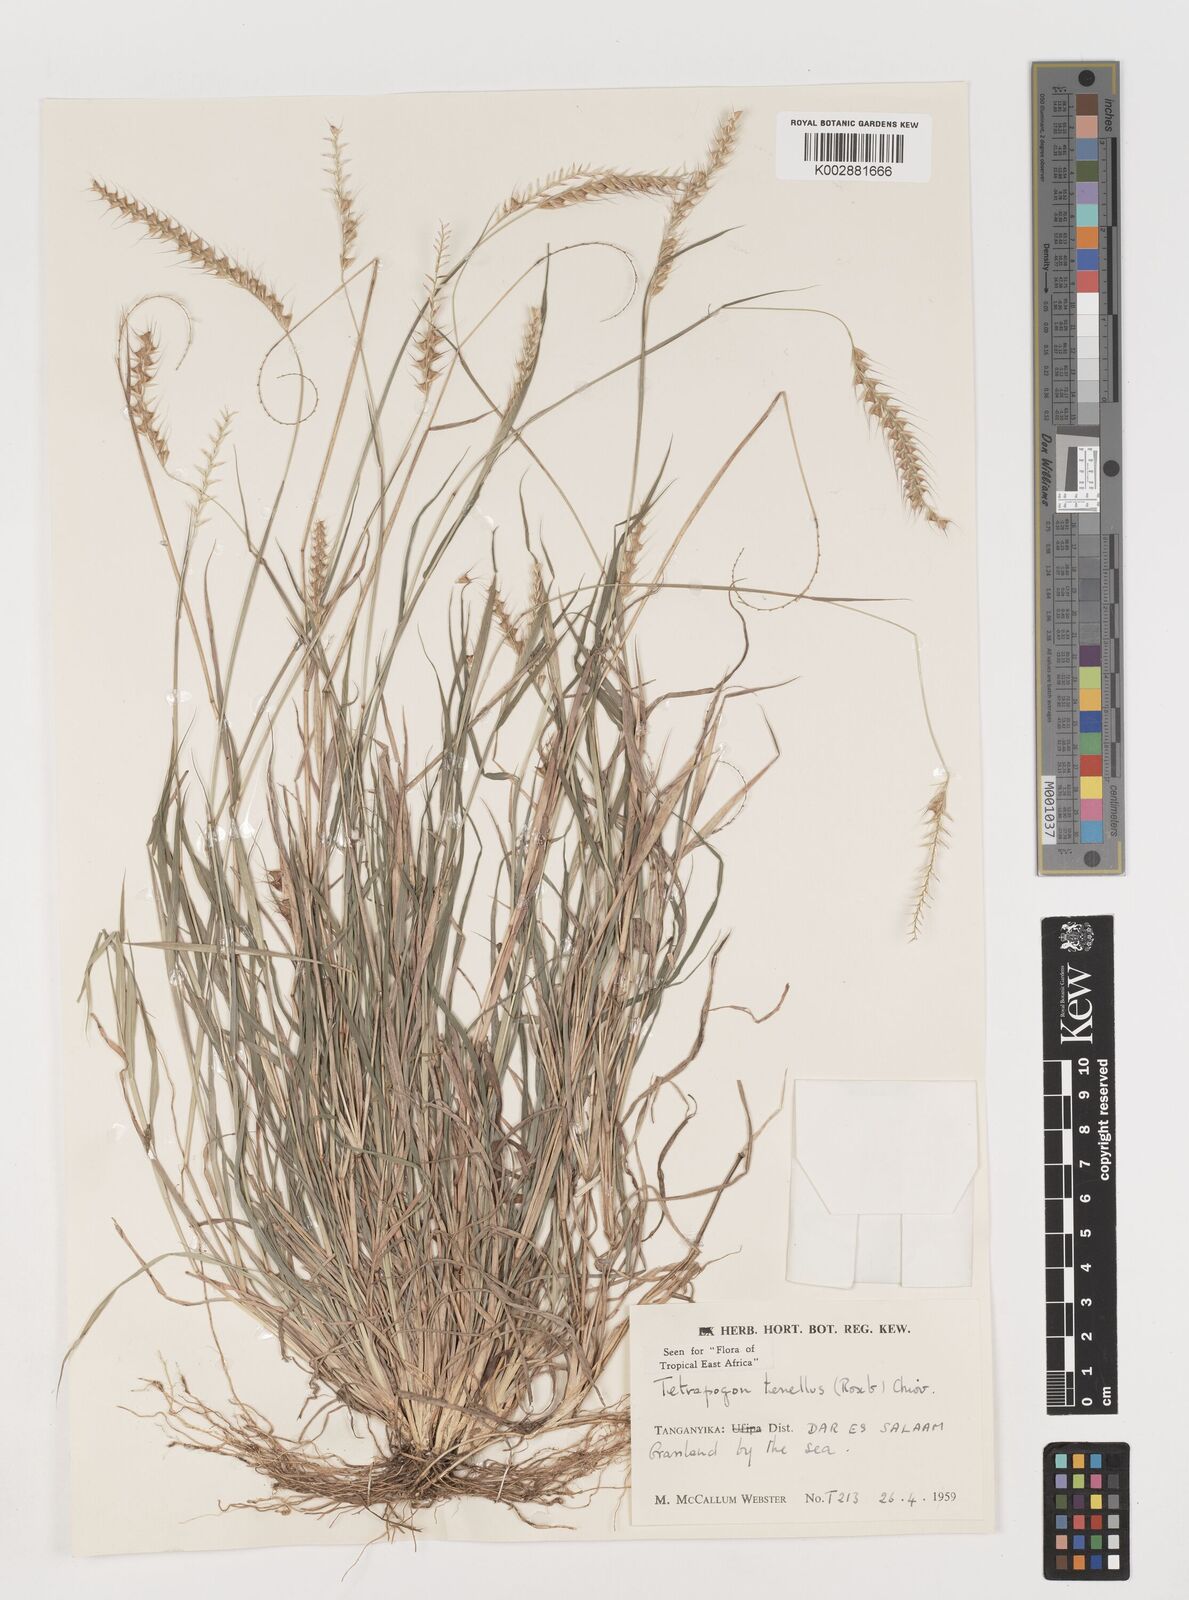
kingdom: Plantae
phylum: Tracheophyta
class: Liliopsida
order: Poales
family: Poaceae
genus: Tetrapogon
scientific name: Tetrapogon tenellus
